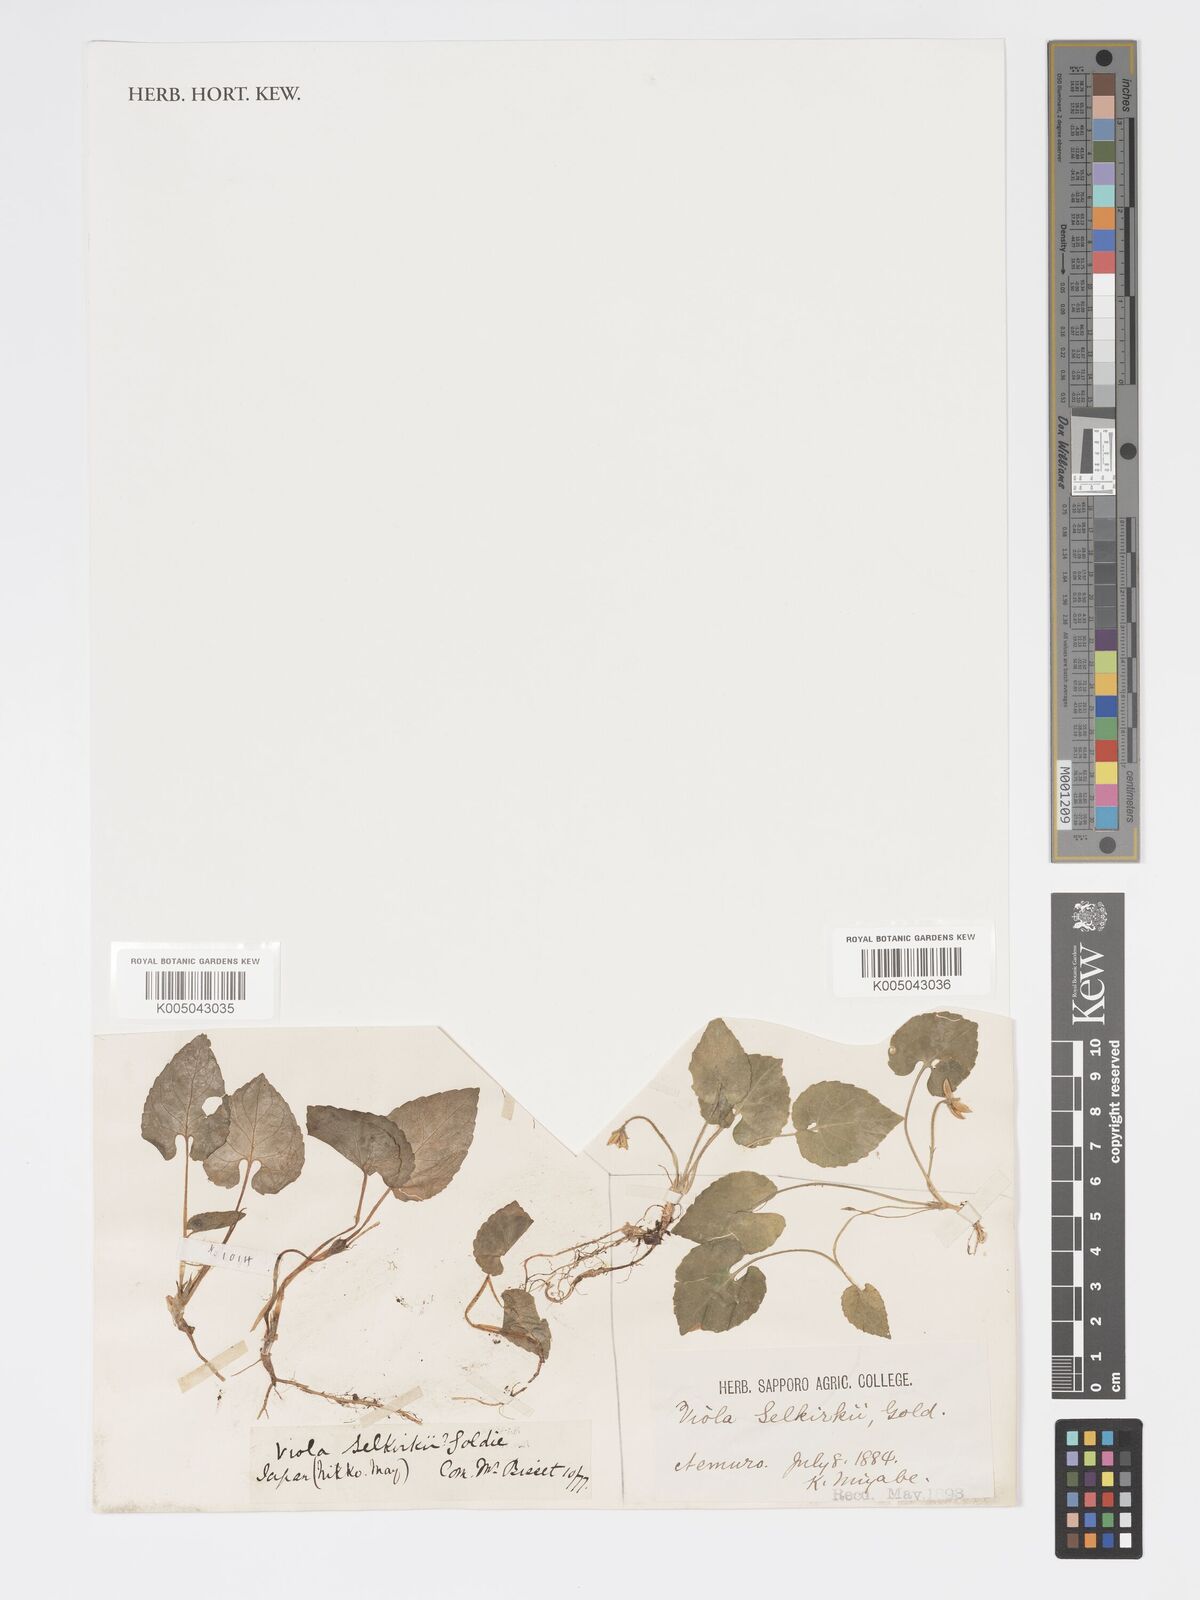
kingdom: Plantae
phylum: Tracheophyta
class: Magnoliopsida
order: Malpighiales
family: Violaceae
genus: Viola
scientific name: Viola selkirkii
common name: Selkirk's violet
